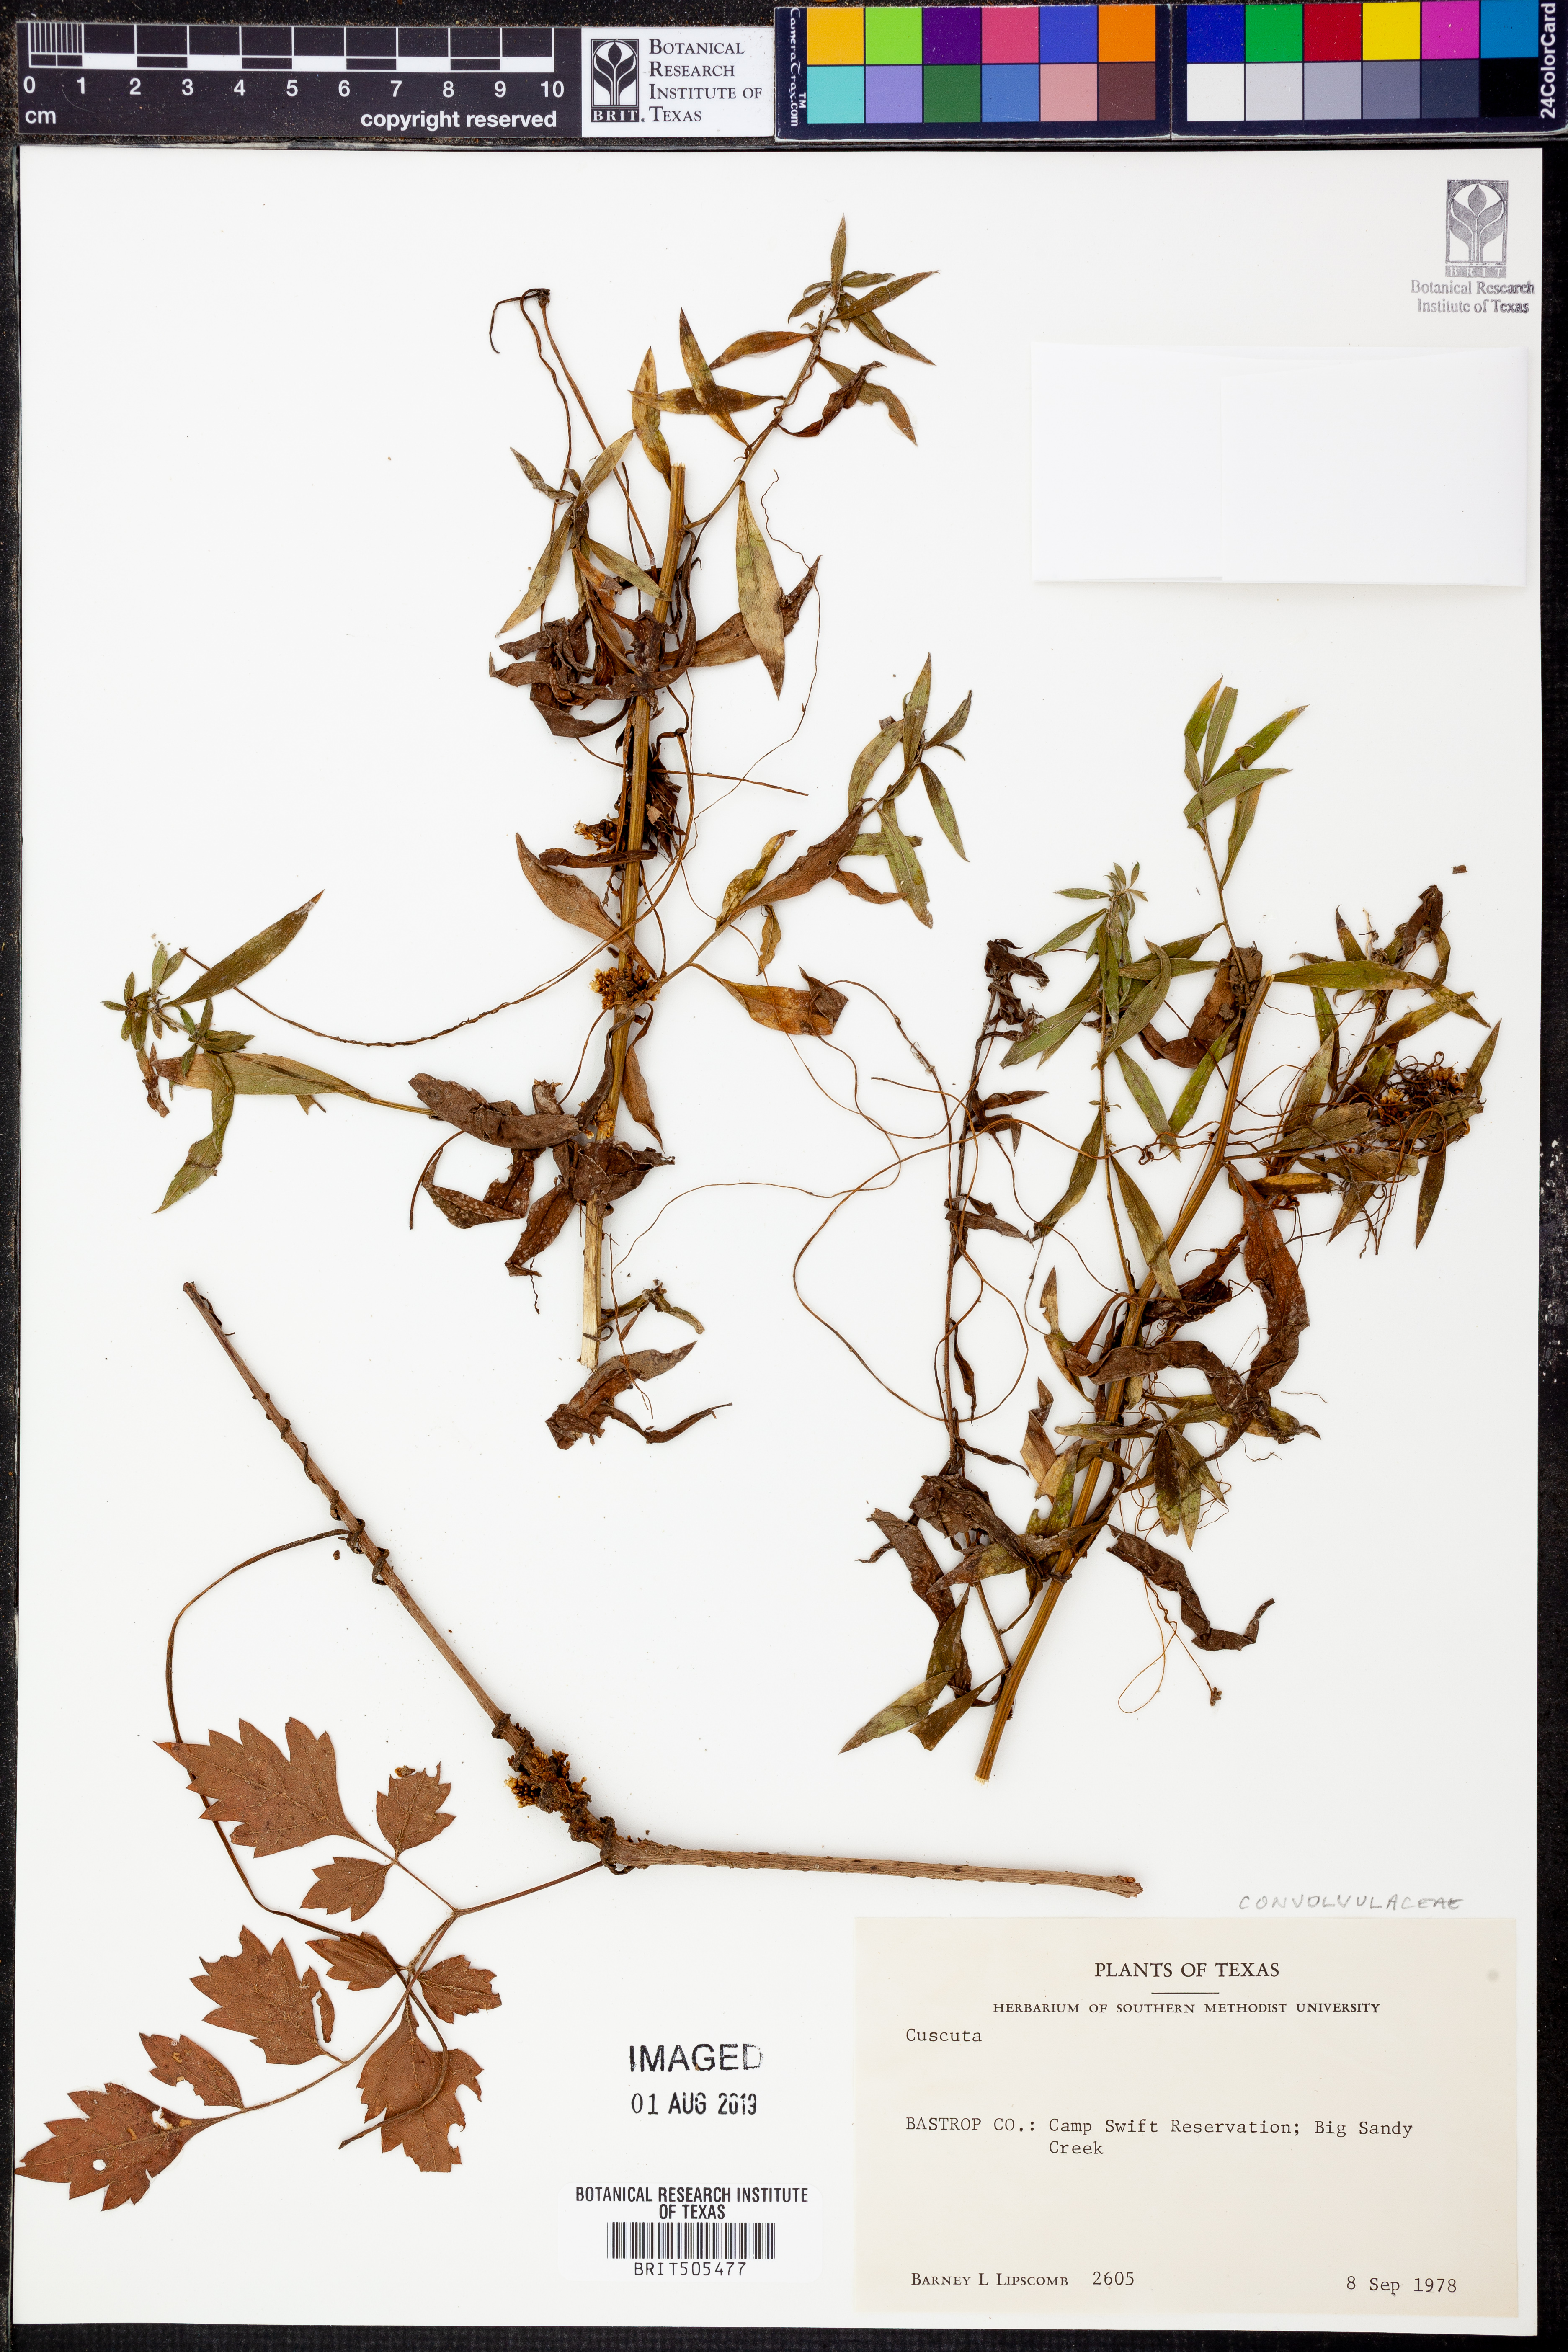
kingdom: Plantae
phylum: Tracheophyta
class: Magnoliopsida
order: Solanales
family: Convolvulaceae
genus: Cuscuta
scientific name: Cuscuta
